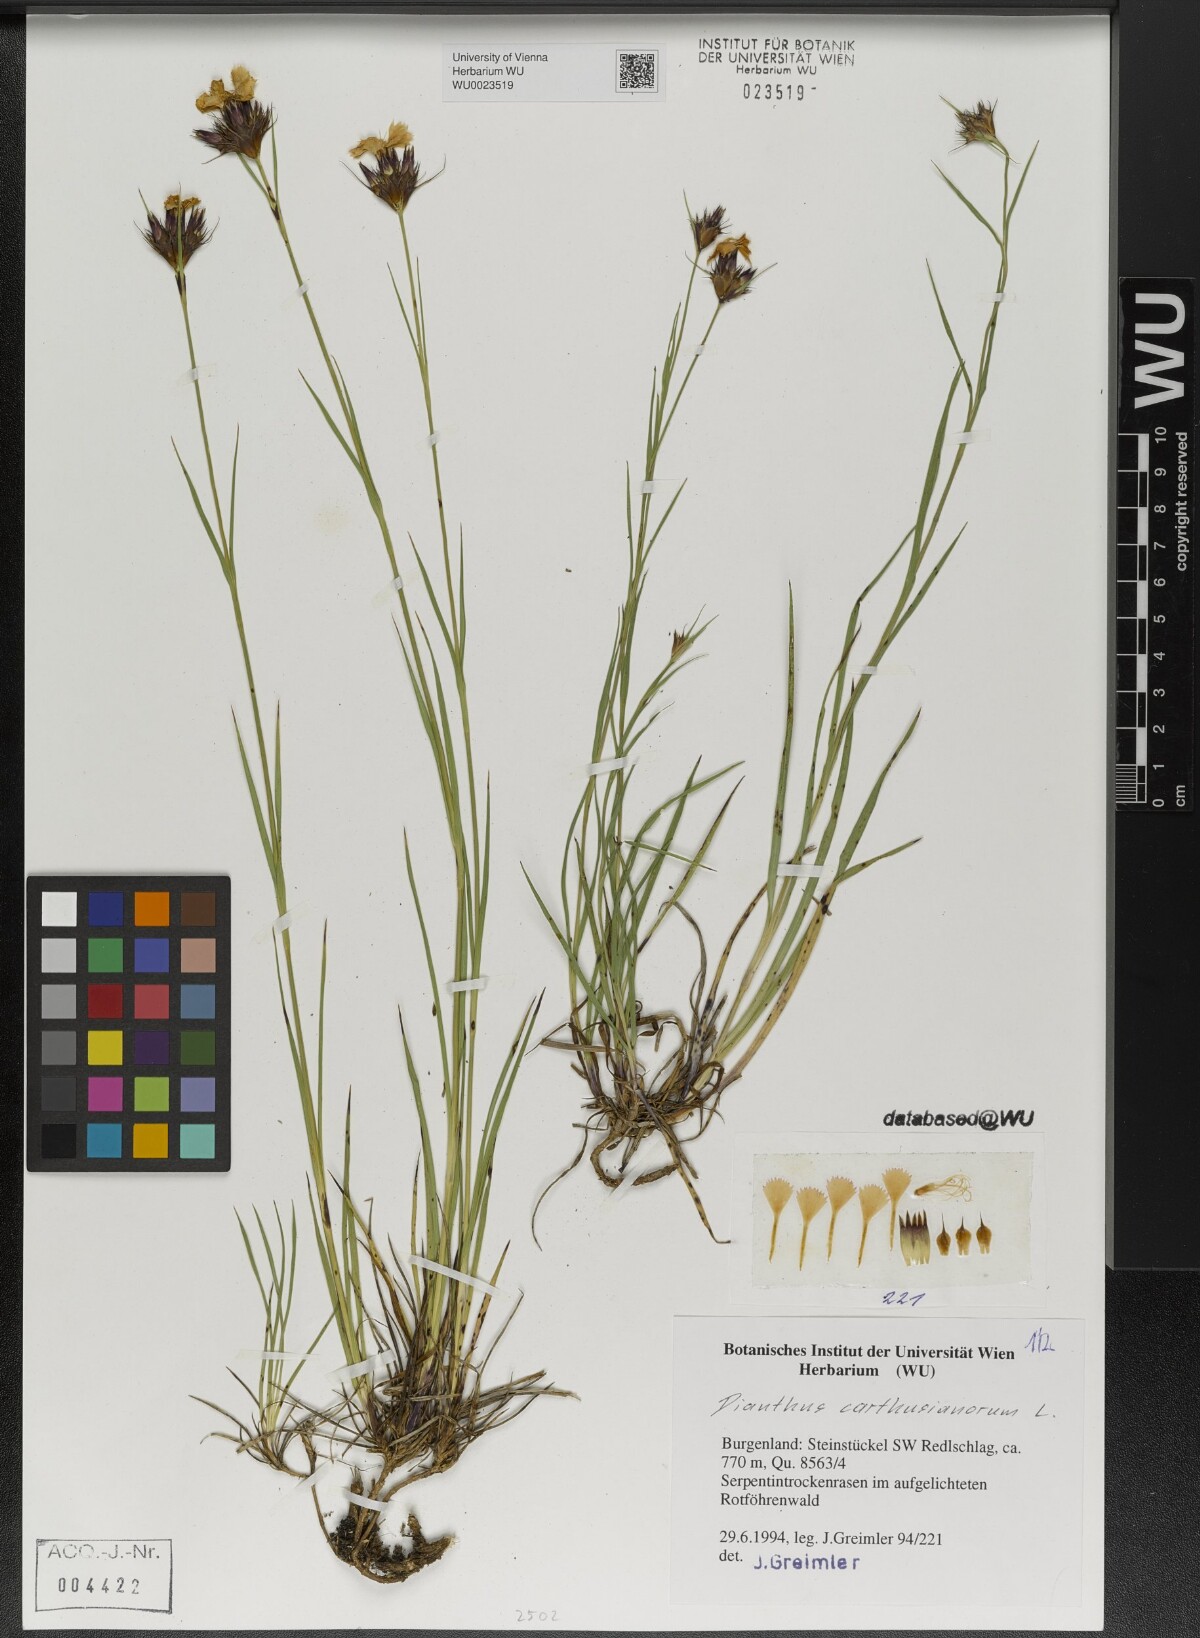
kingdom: Plantae
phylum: Tracheophyta
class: Magnoliopsida
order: Caryophyllales
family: Caryophyllaceae
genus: Dianthus
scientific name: Dianthus carthusianorum
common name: Carthusian pink
